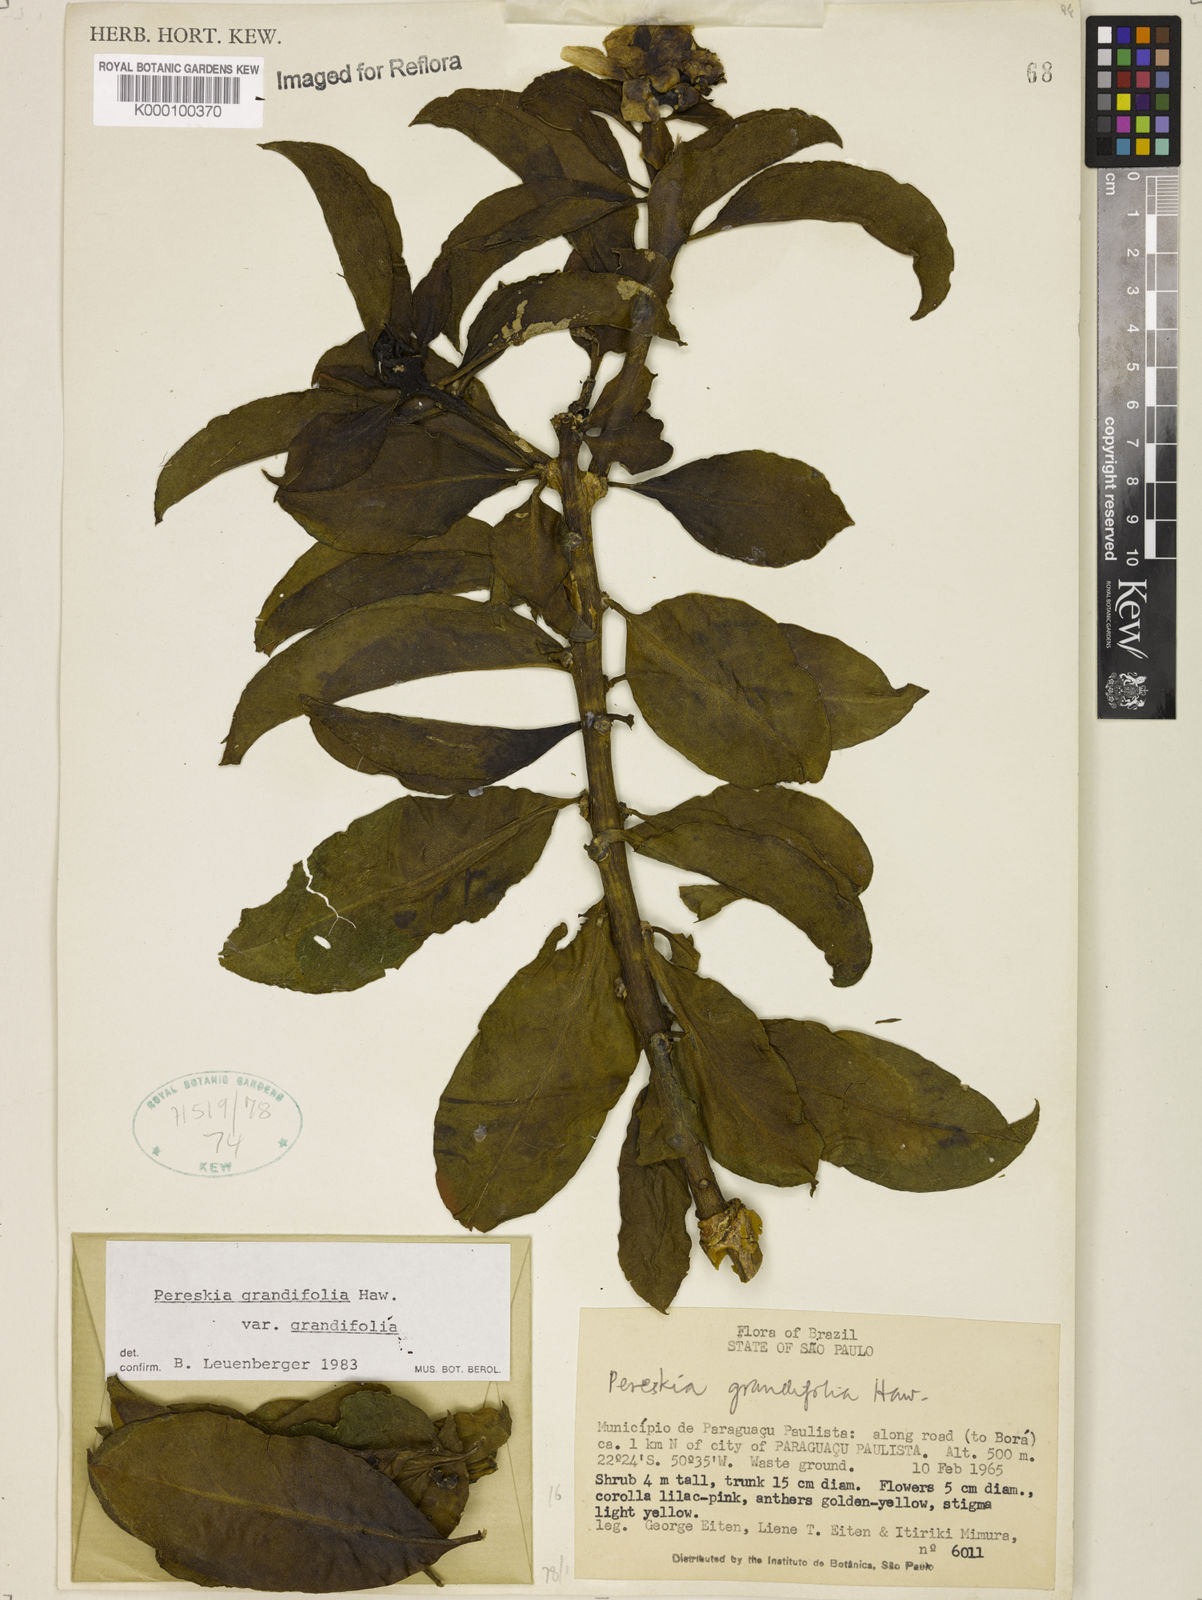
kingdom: Plantae
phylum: Tracheophyta
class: Magnoliopsida
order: Caryophyllales
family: Cactaceae
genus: Pereskia
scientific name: Pereskia grandifolia
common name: Rose cactus
